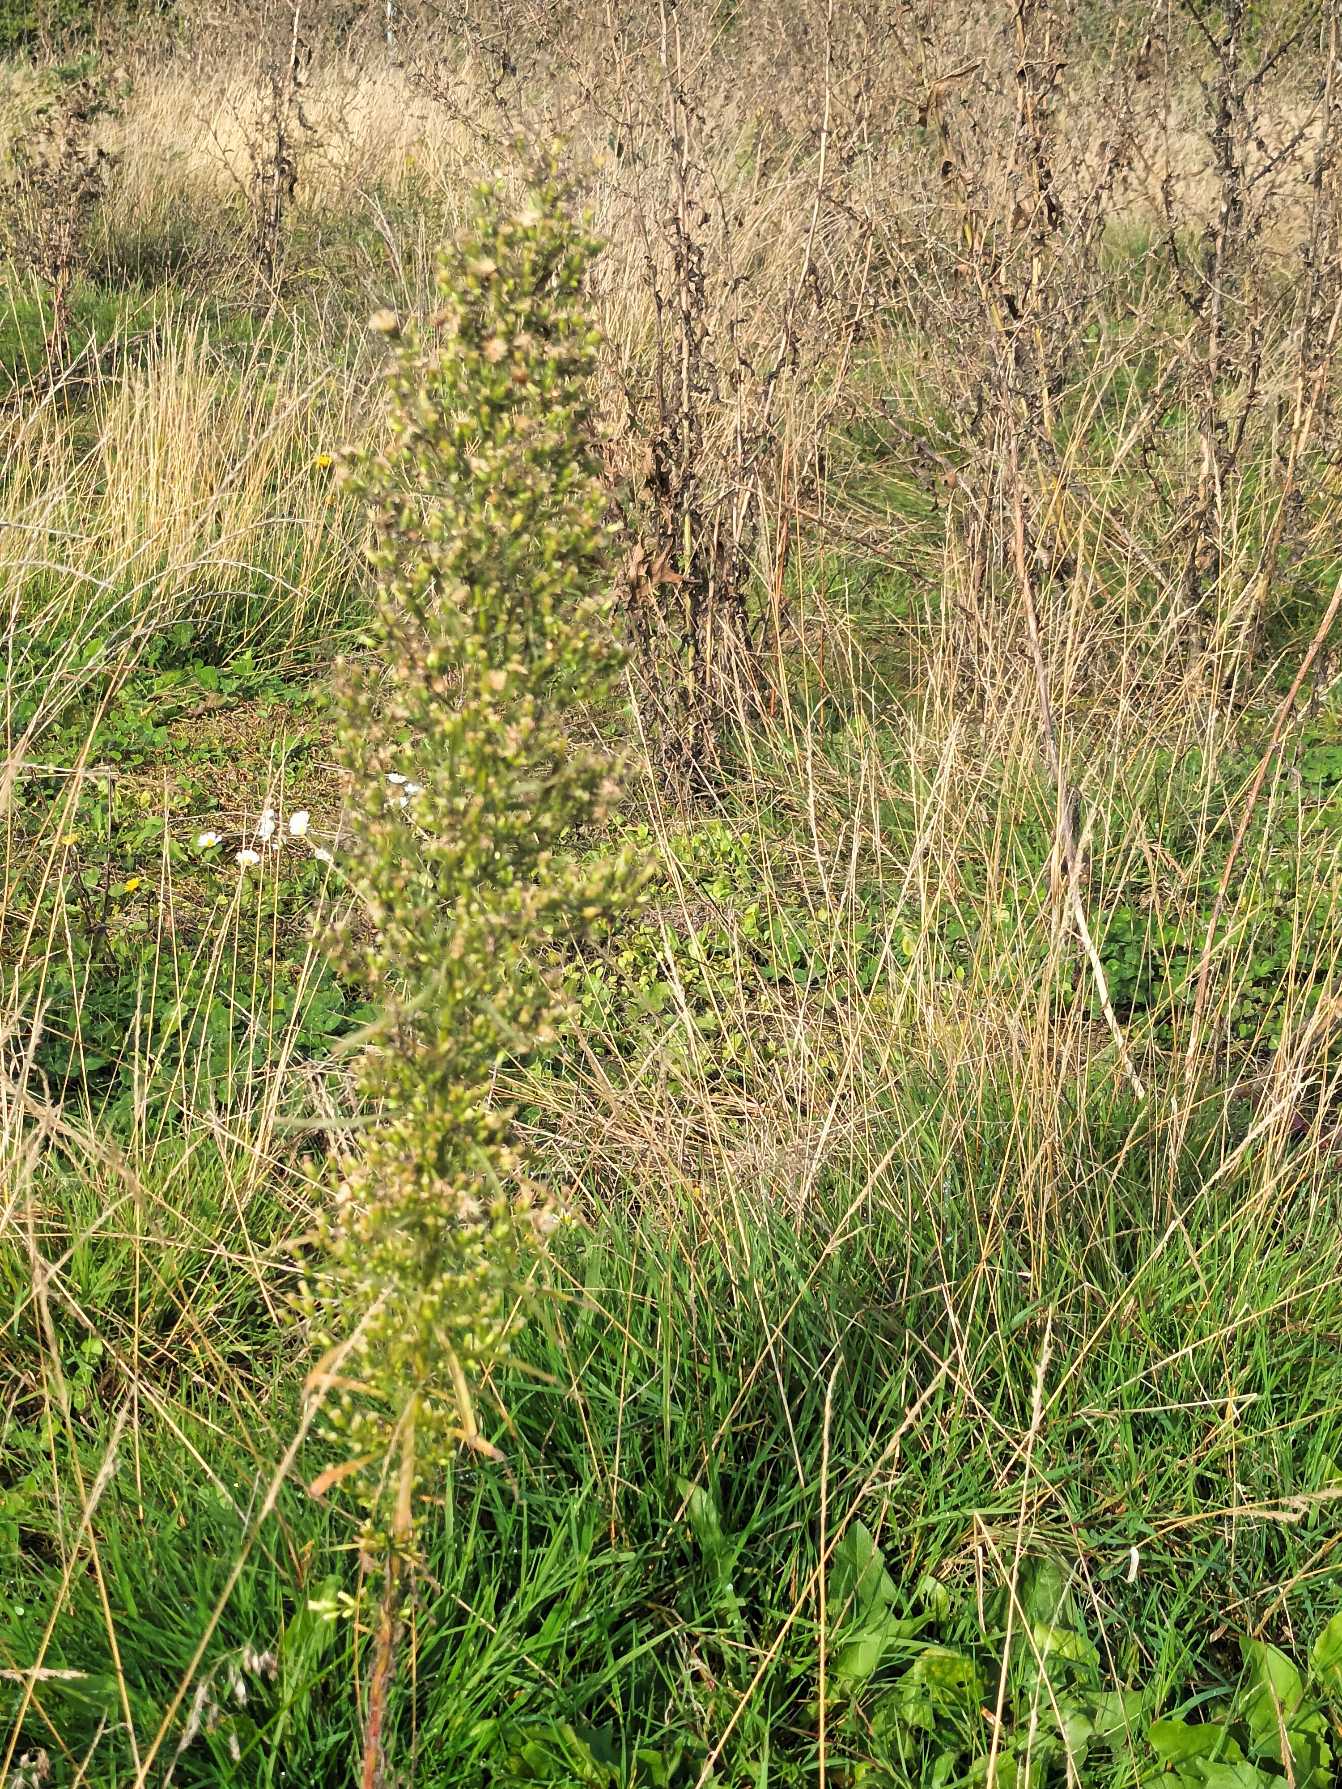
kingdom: Plantae
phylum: Tracheophyta
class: Magnoliopsida
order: Asterales
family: Asteraceae
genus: Erigeron
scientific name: Erigeron canadensis
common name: Kanadisk bakkestjerne
